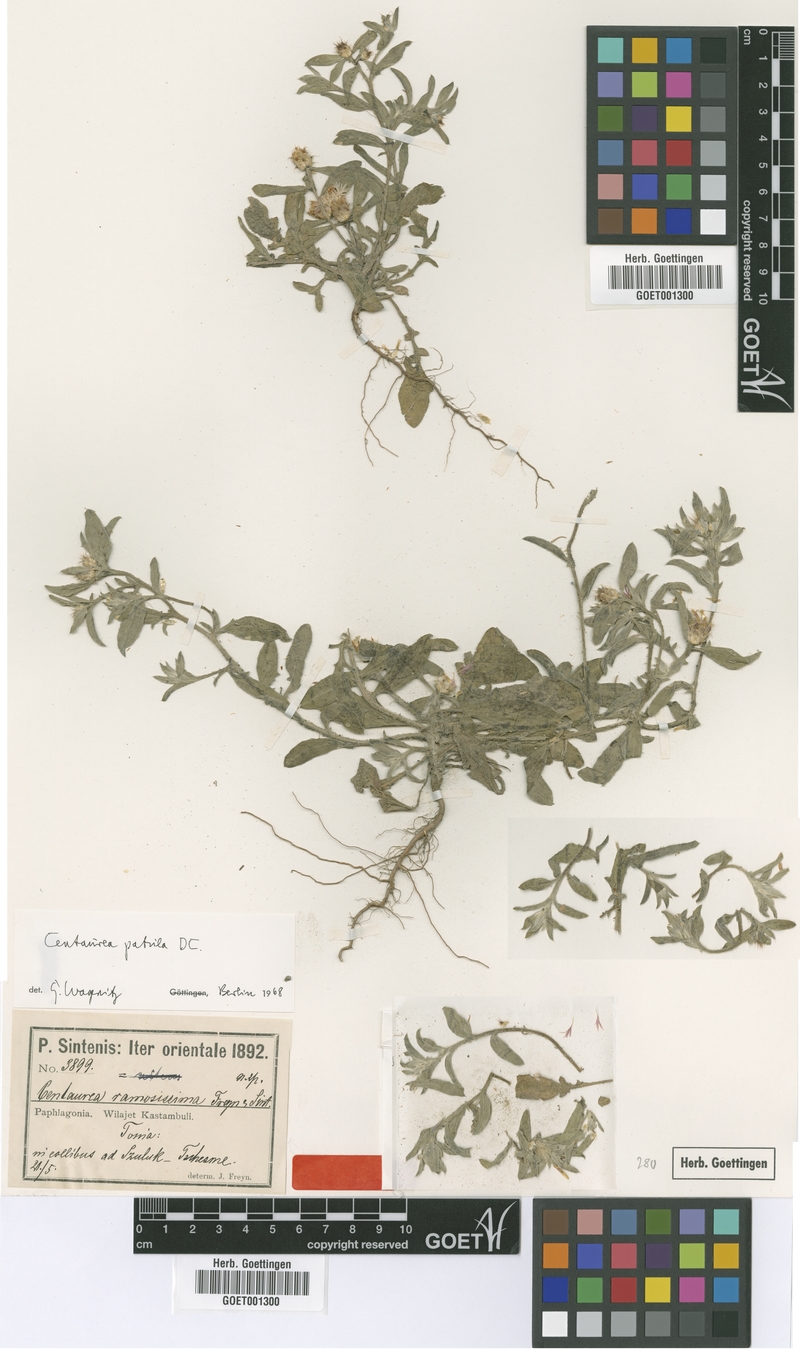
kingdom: Plantae
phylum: Tracheophyta
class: Magnoliopsida
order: Asterales
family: Asteraceae
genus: Centaurea
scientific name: Centaurea patula
